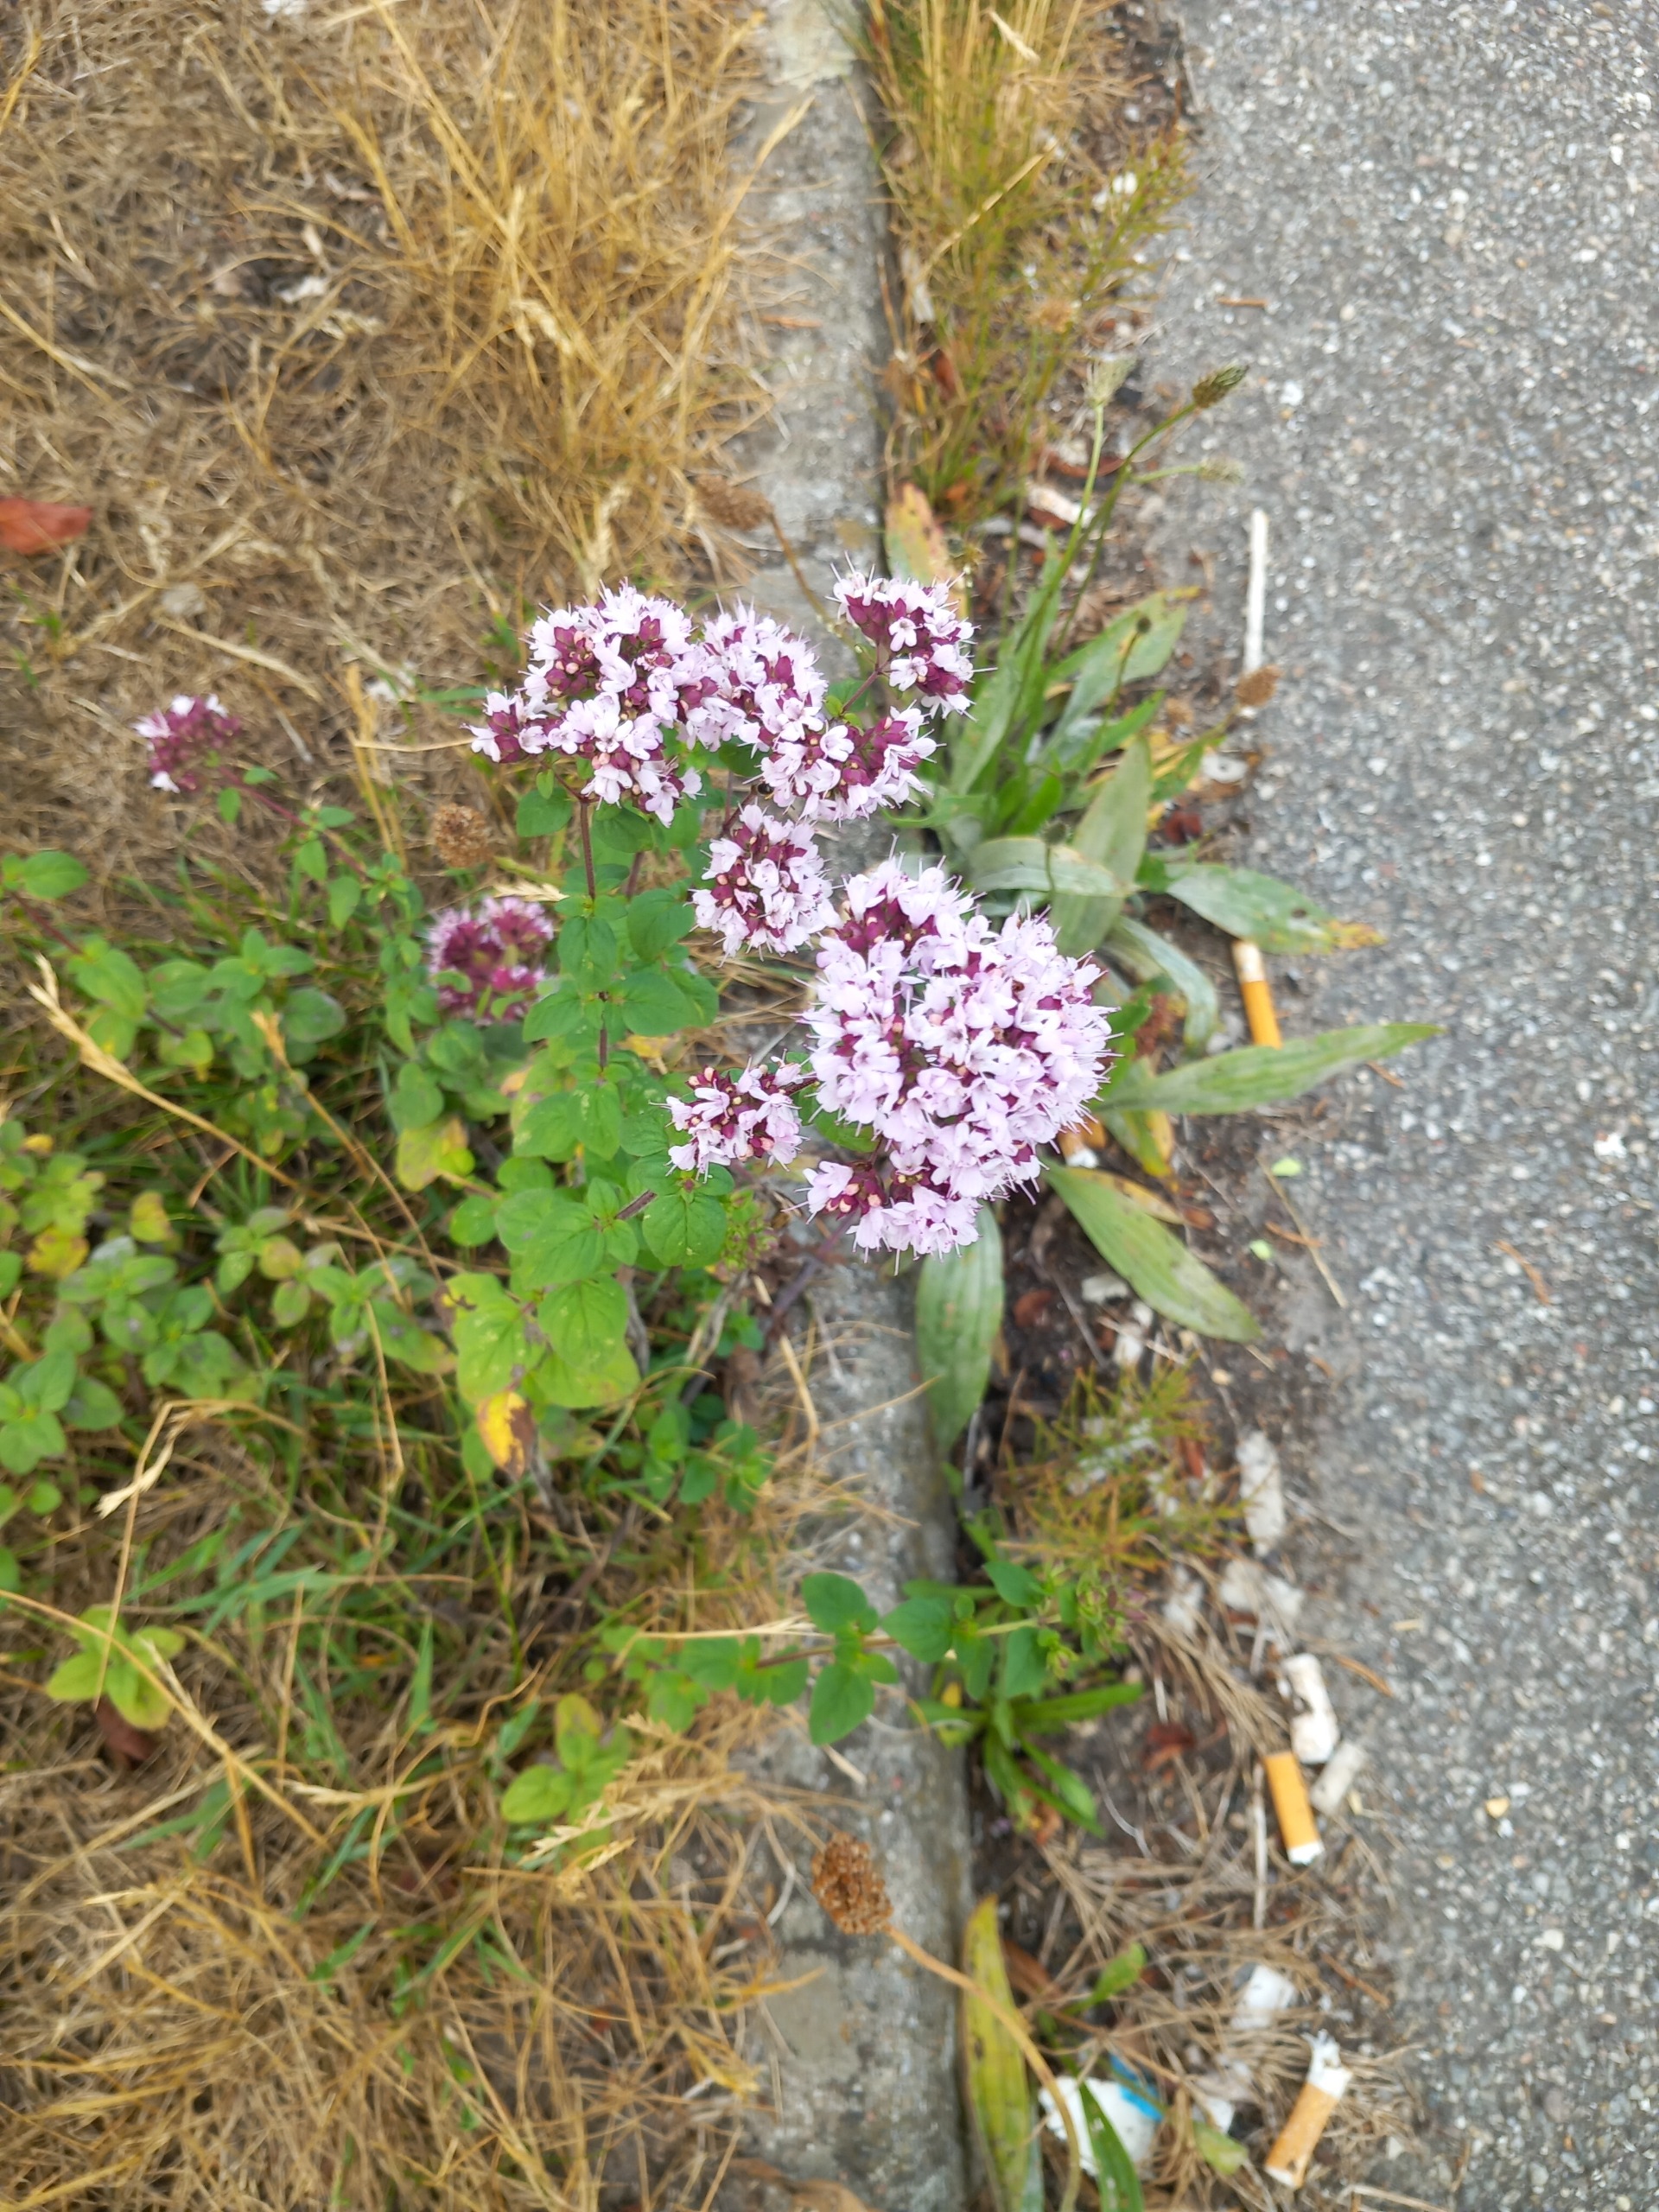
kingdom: Plantae
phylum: Tracheophyta
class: Magnoliopsida
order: Lamiales
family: Lamiaceae
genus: Origanum
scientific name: Origanum vulgare
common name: Merian
